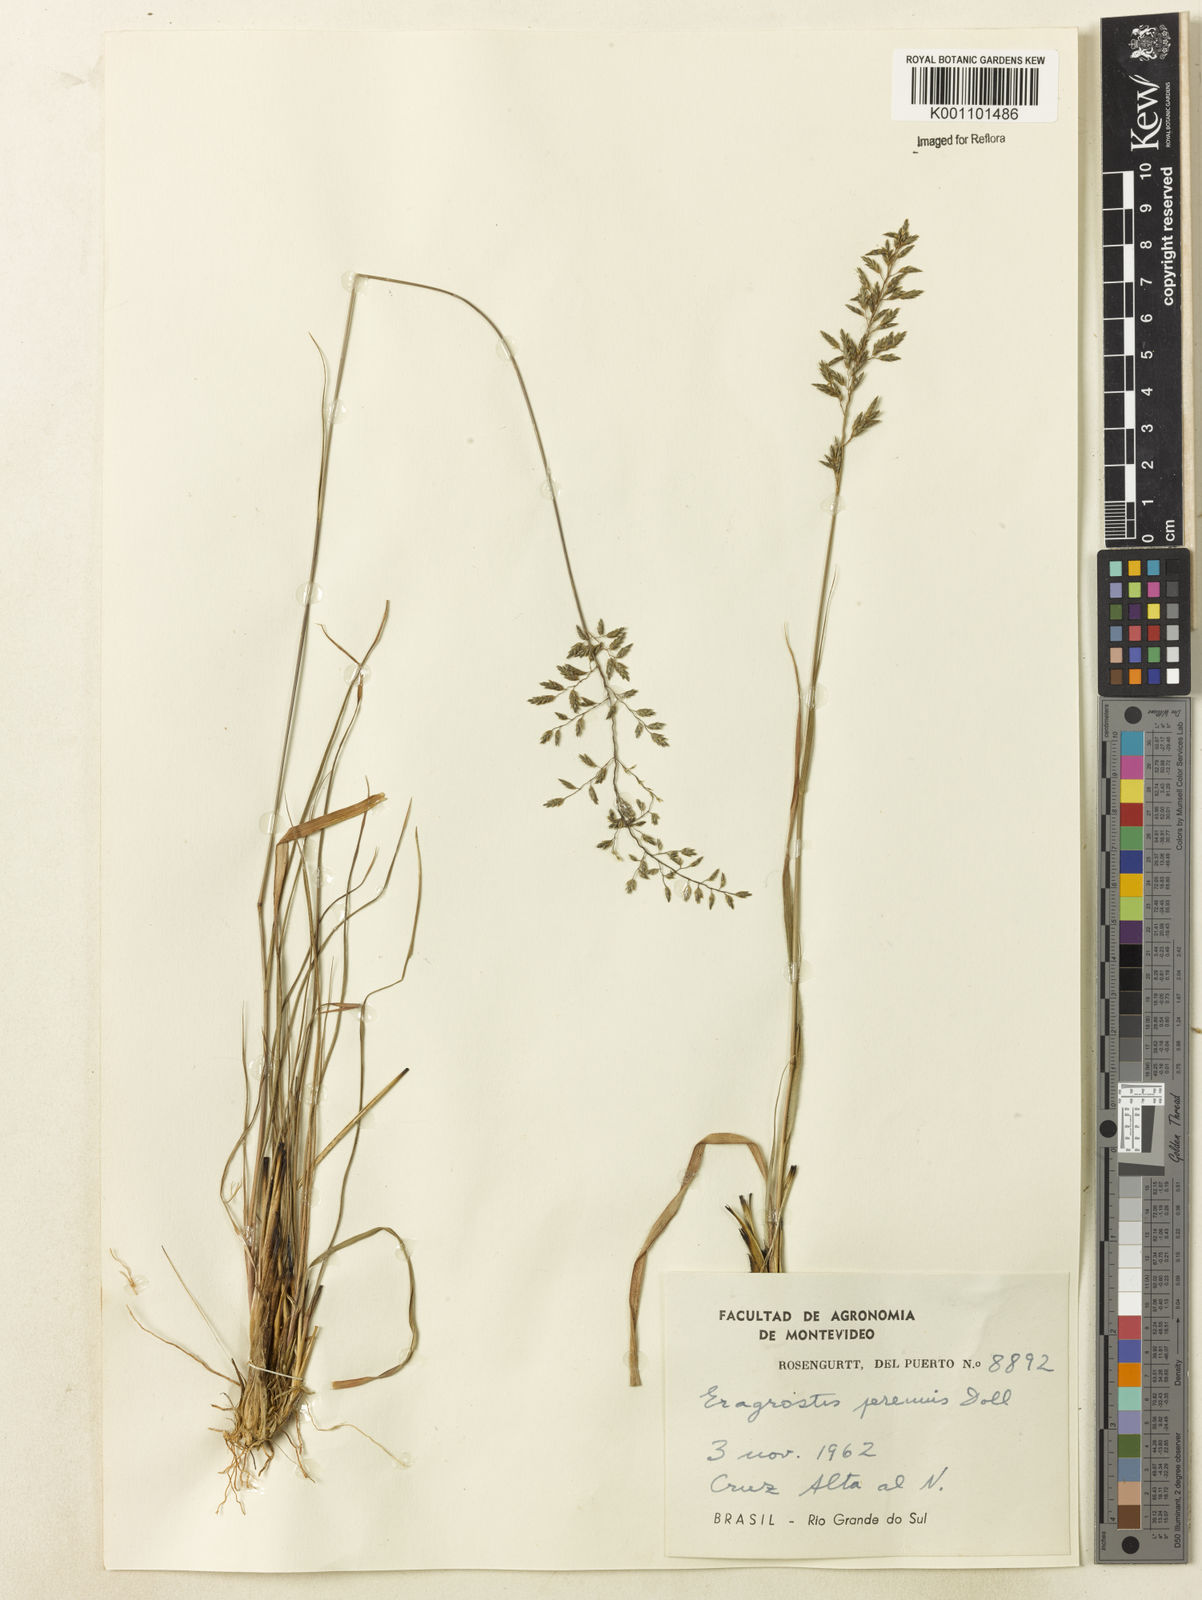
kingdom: Plantae
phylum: Tracheophyta
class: Liliopsida
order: Poales
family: Poaceae
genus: Eragrostis
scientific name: Eragrostis
